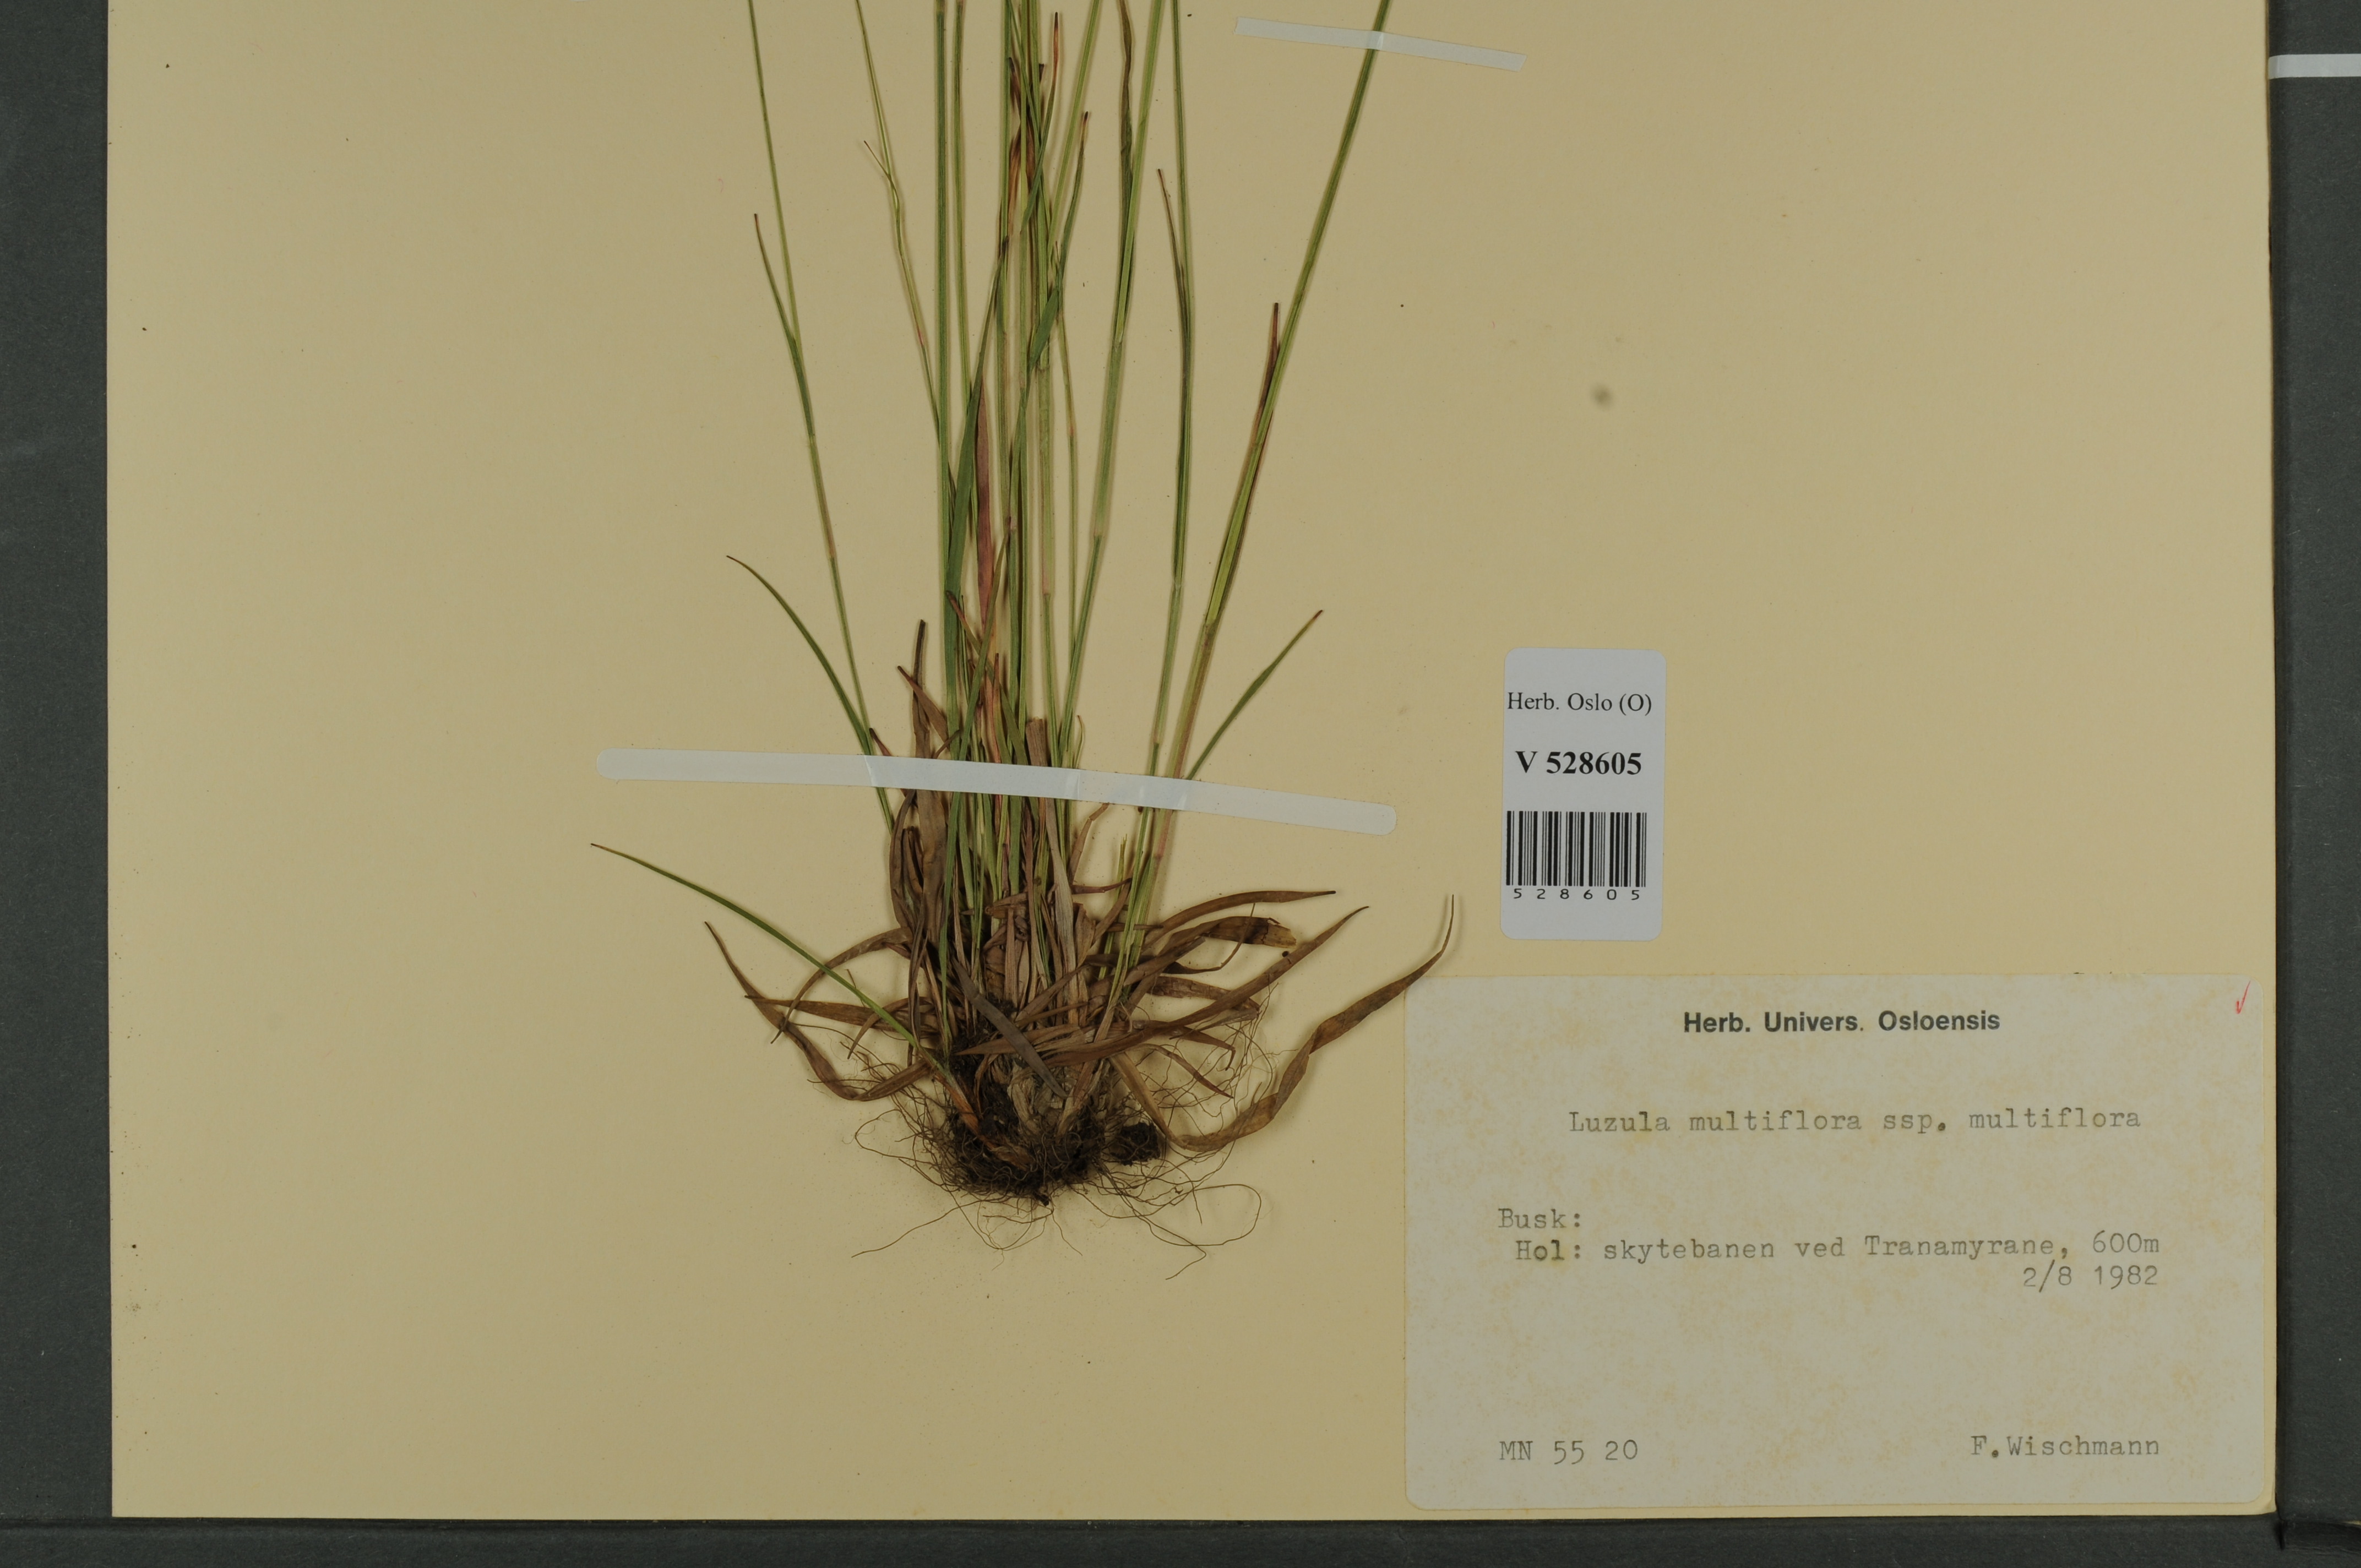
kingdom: Plantae
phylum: Tracheophyta
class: Liliopsida
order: Poales
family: Juncaceae
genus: Luzula
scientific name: Luzula multiflora
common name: Heath wood-rush
